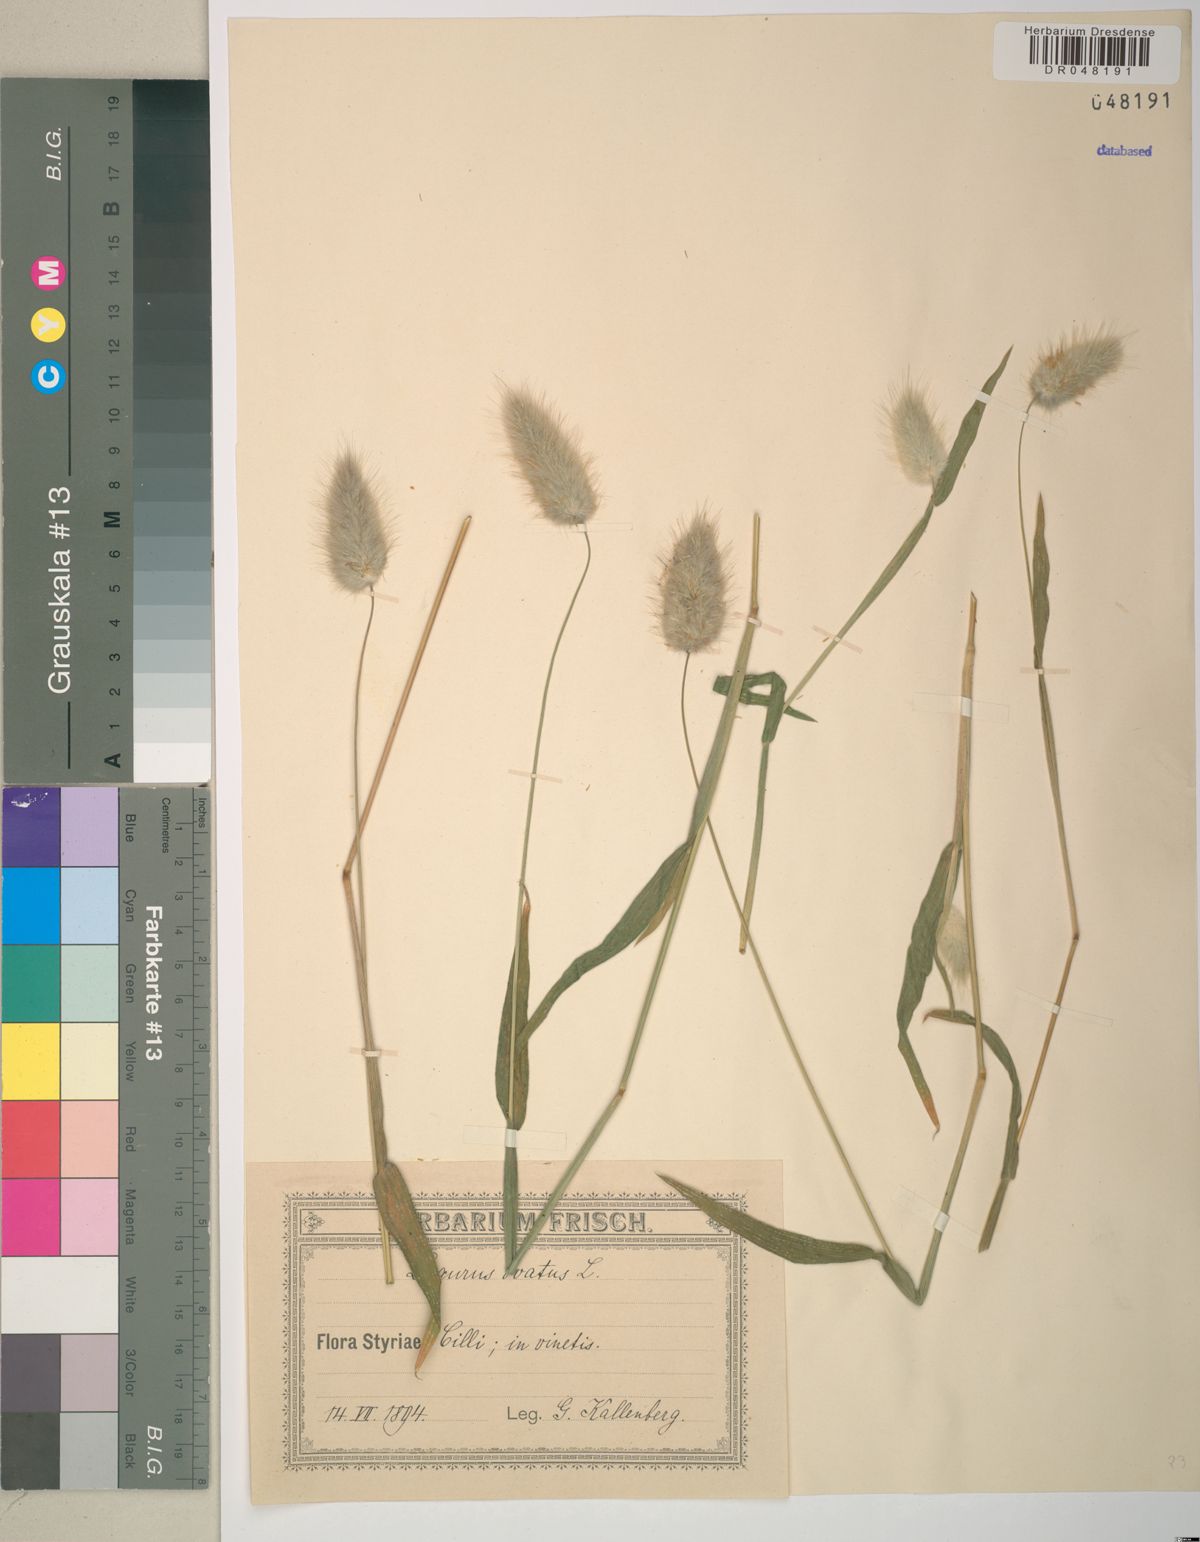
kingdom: Plantae
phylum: Tracheophyta
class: Liliopsida
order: Poales
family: Poaceae
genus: Lagurus
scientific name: Lagurus ovatus
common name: Hare's-tail
